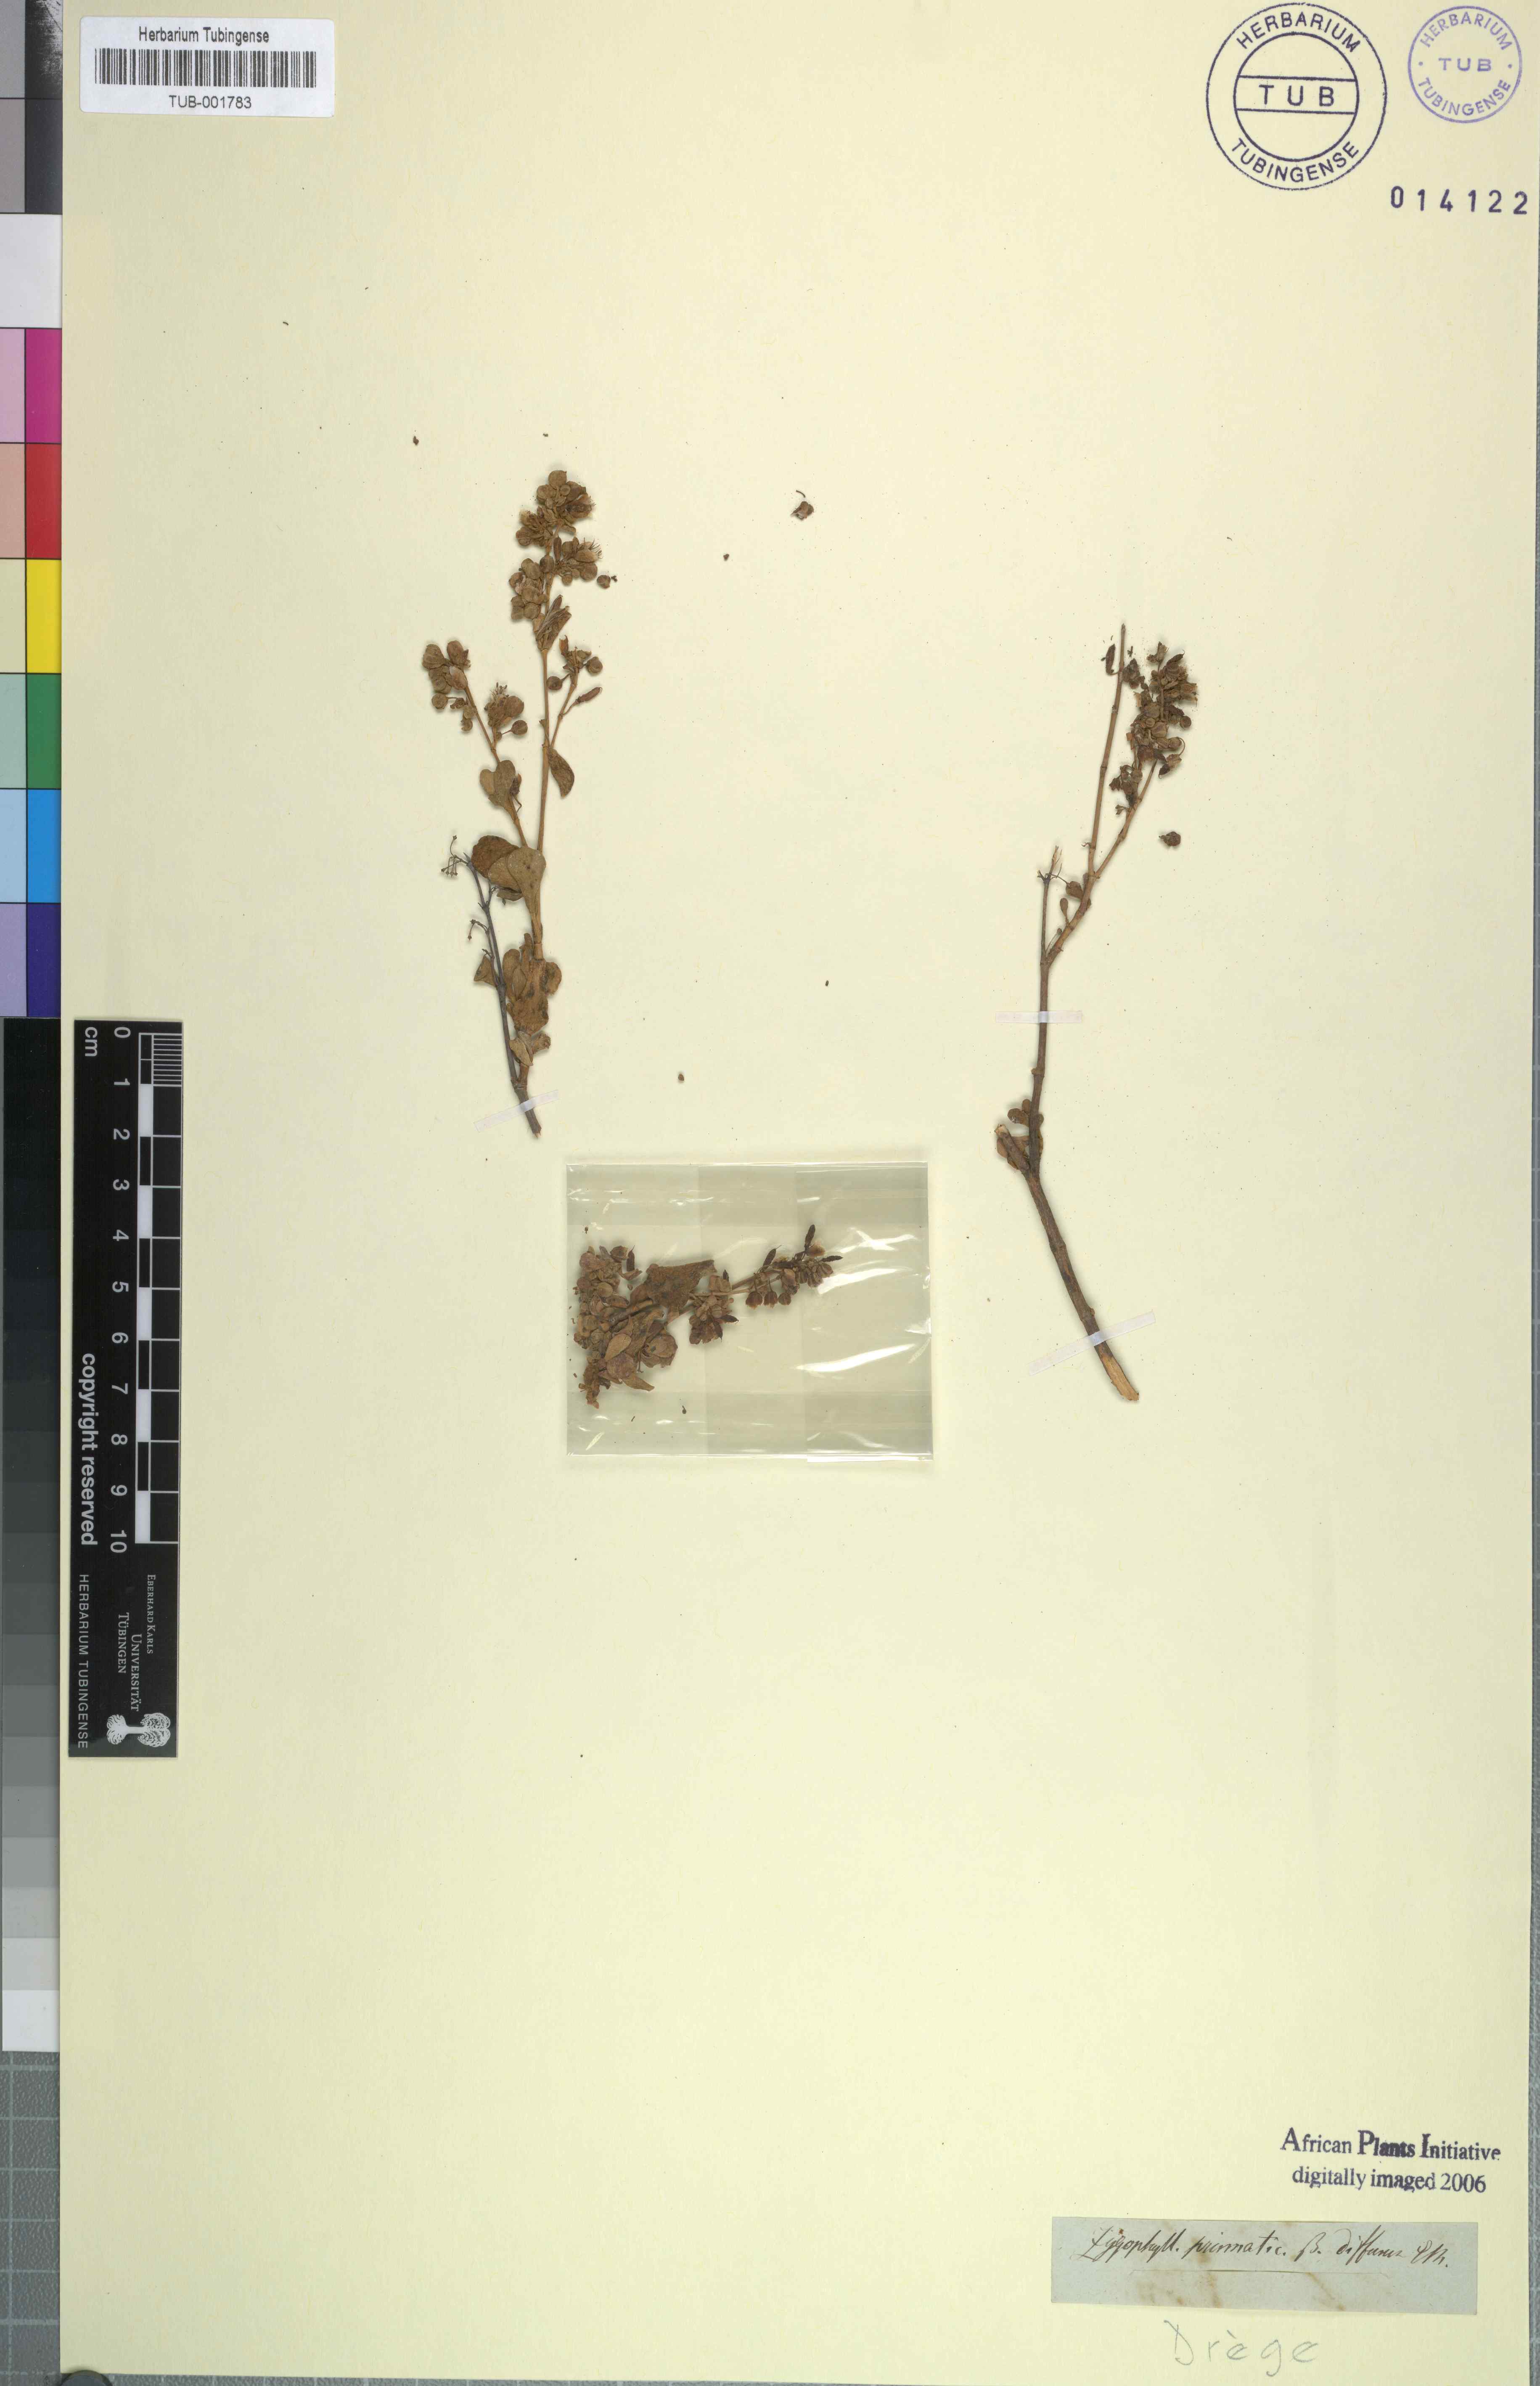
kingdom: Plantae
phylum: Tracheophyta
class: Magnoliopsida
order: Zygophyllales
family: Zygophyllaceae
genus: Tetraena
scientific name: Tetraena prismatocarpa
